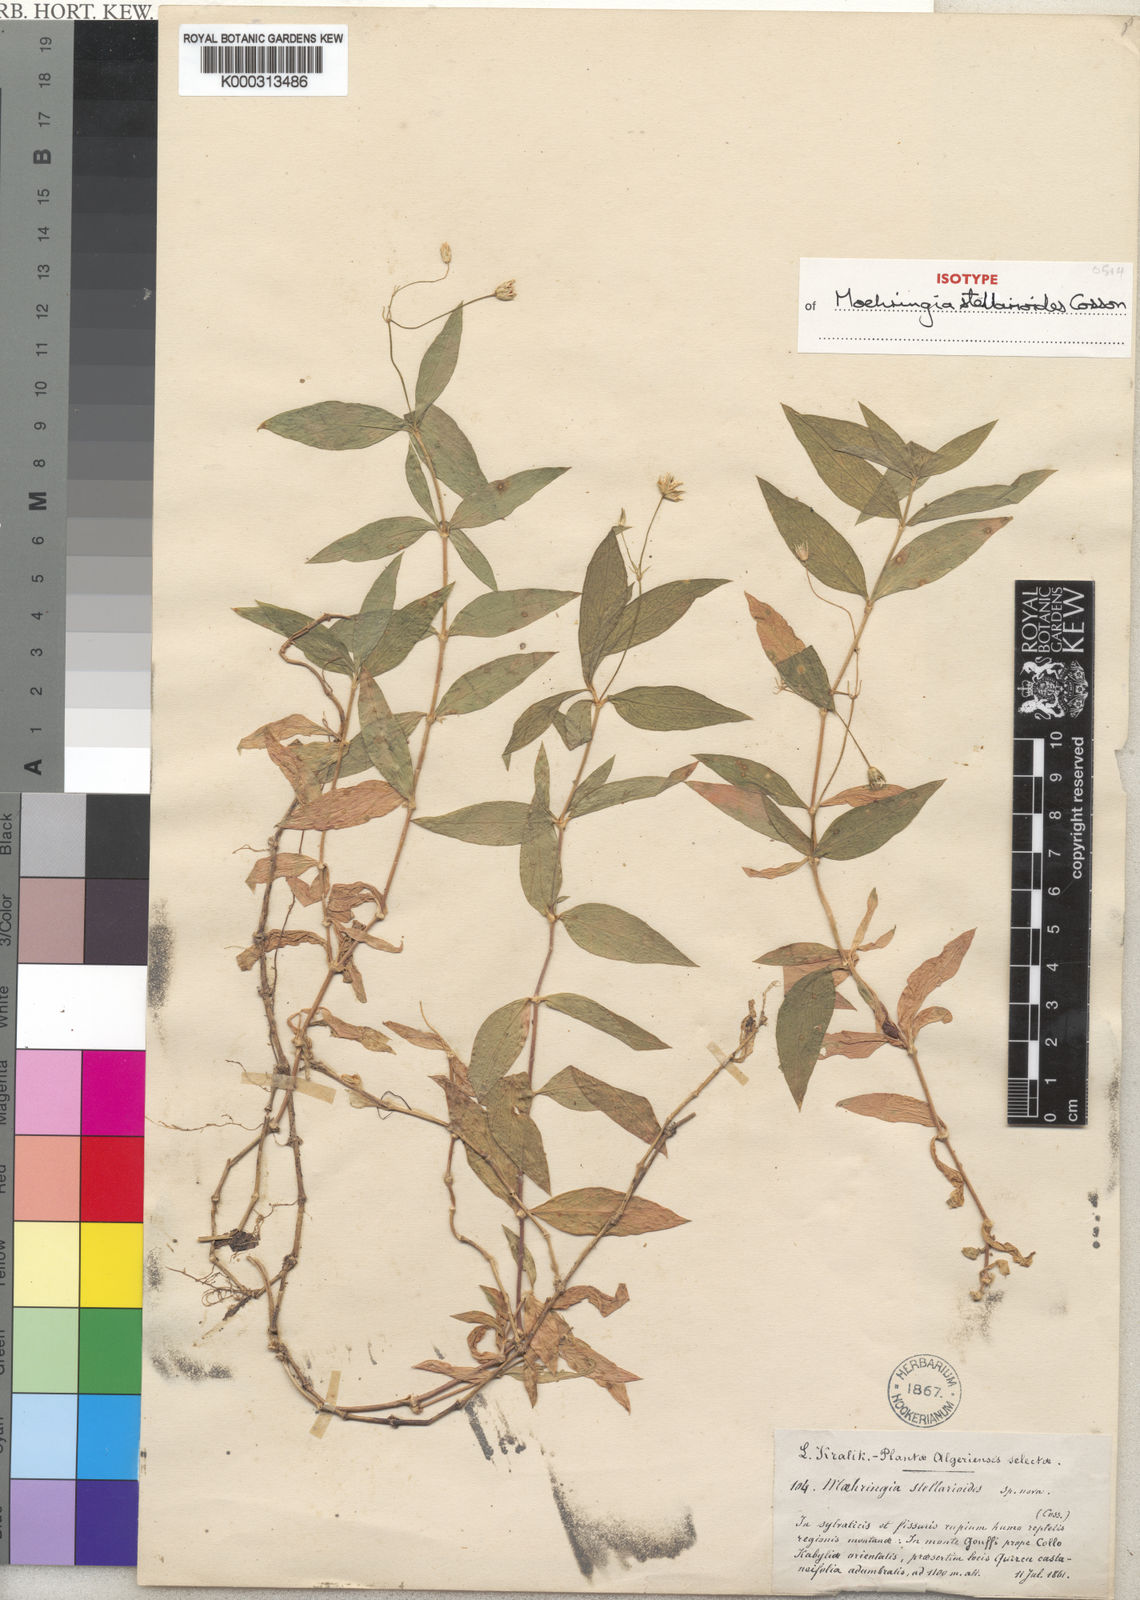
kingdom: Plantae
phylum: Tracheophyta
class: Magnoliopsida
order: Caryophyllales
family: Caryophyllaceae
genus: Moehringia
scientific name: Moehringia stellarioides
